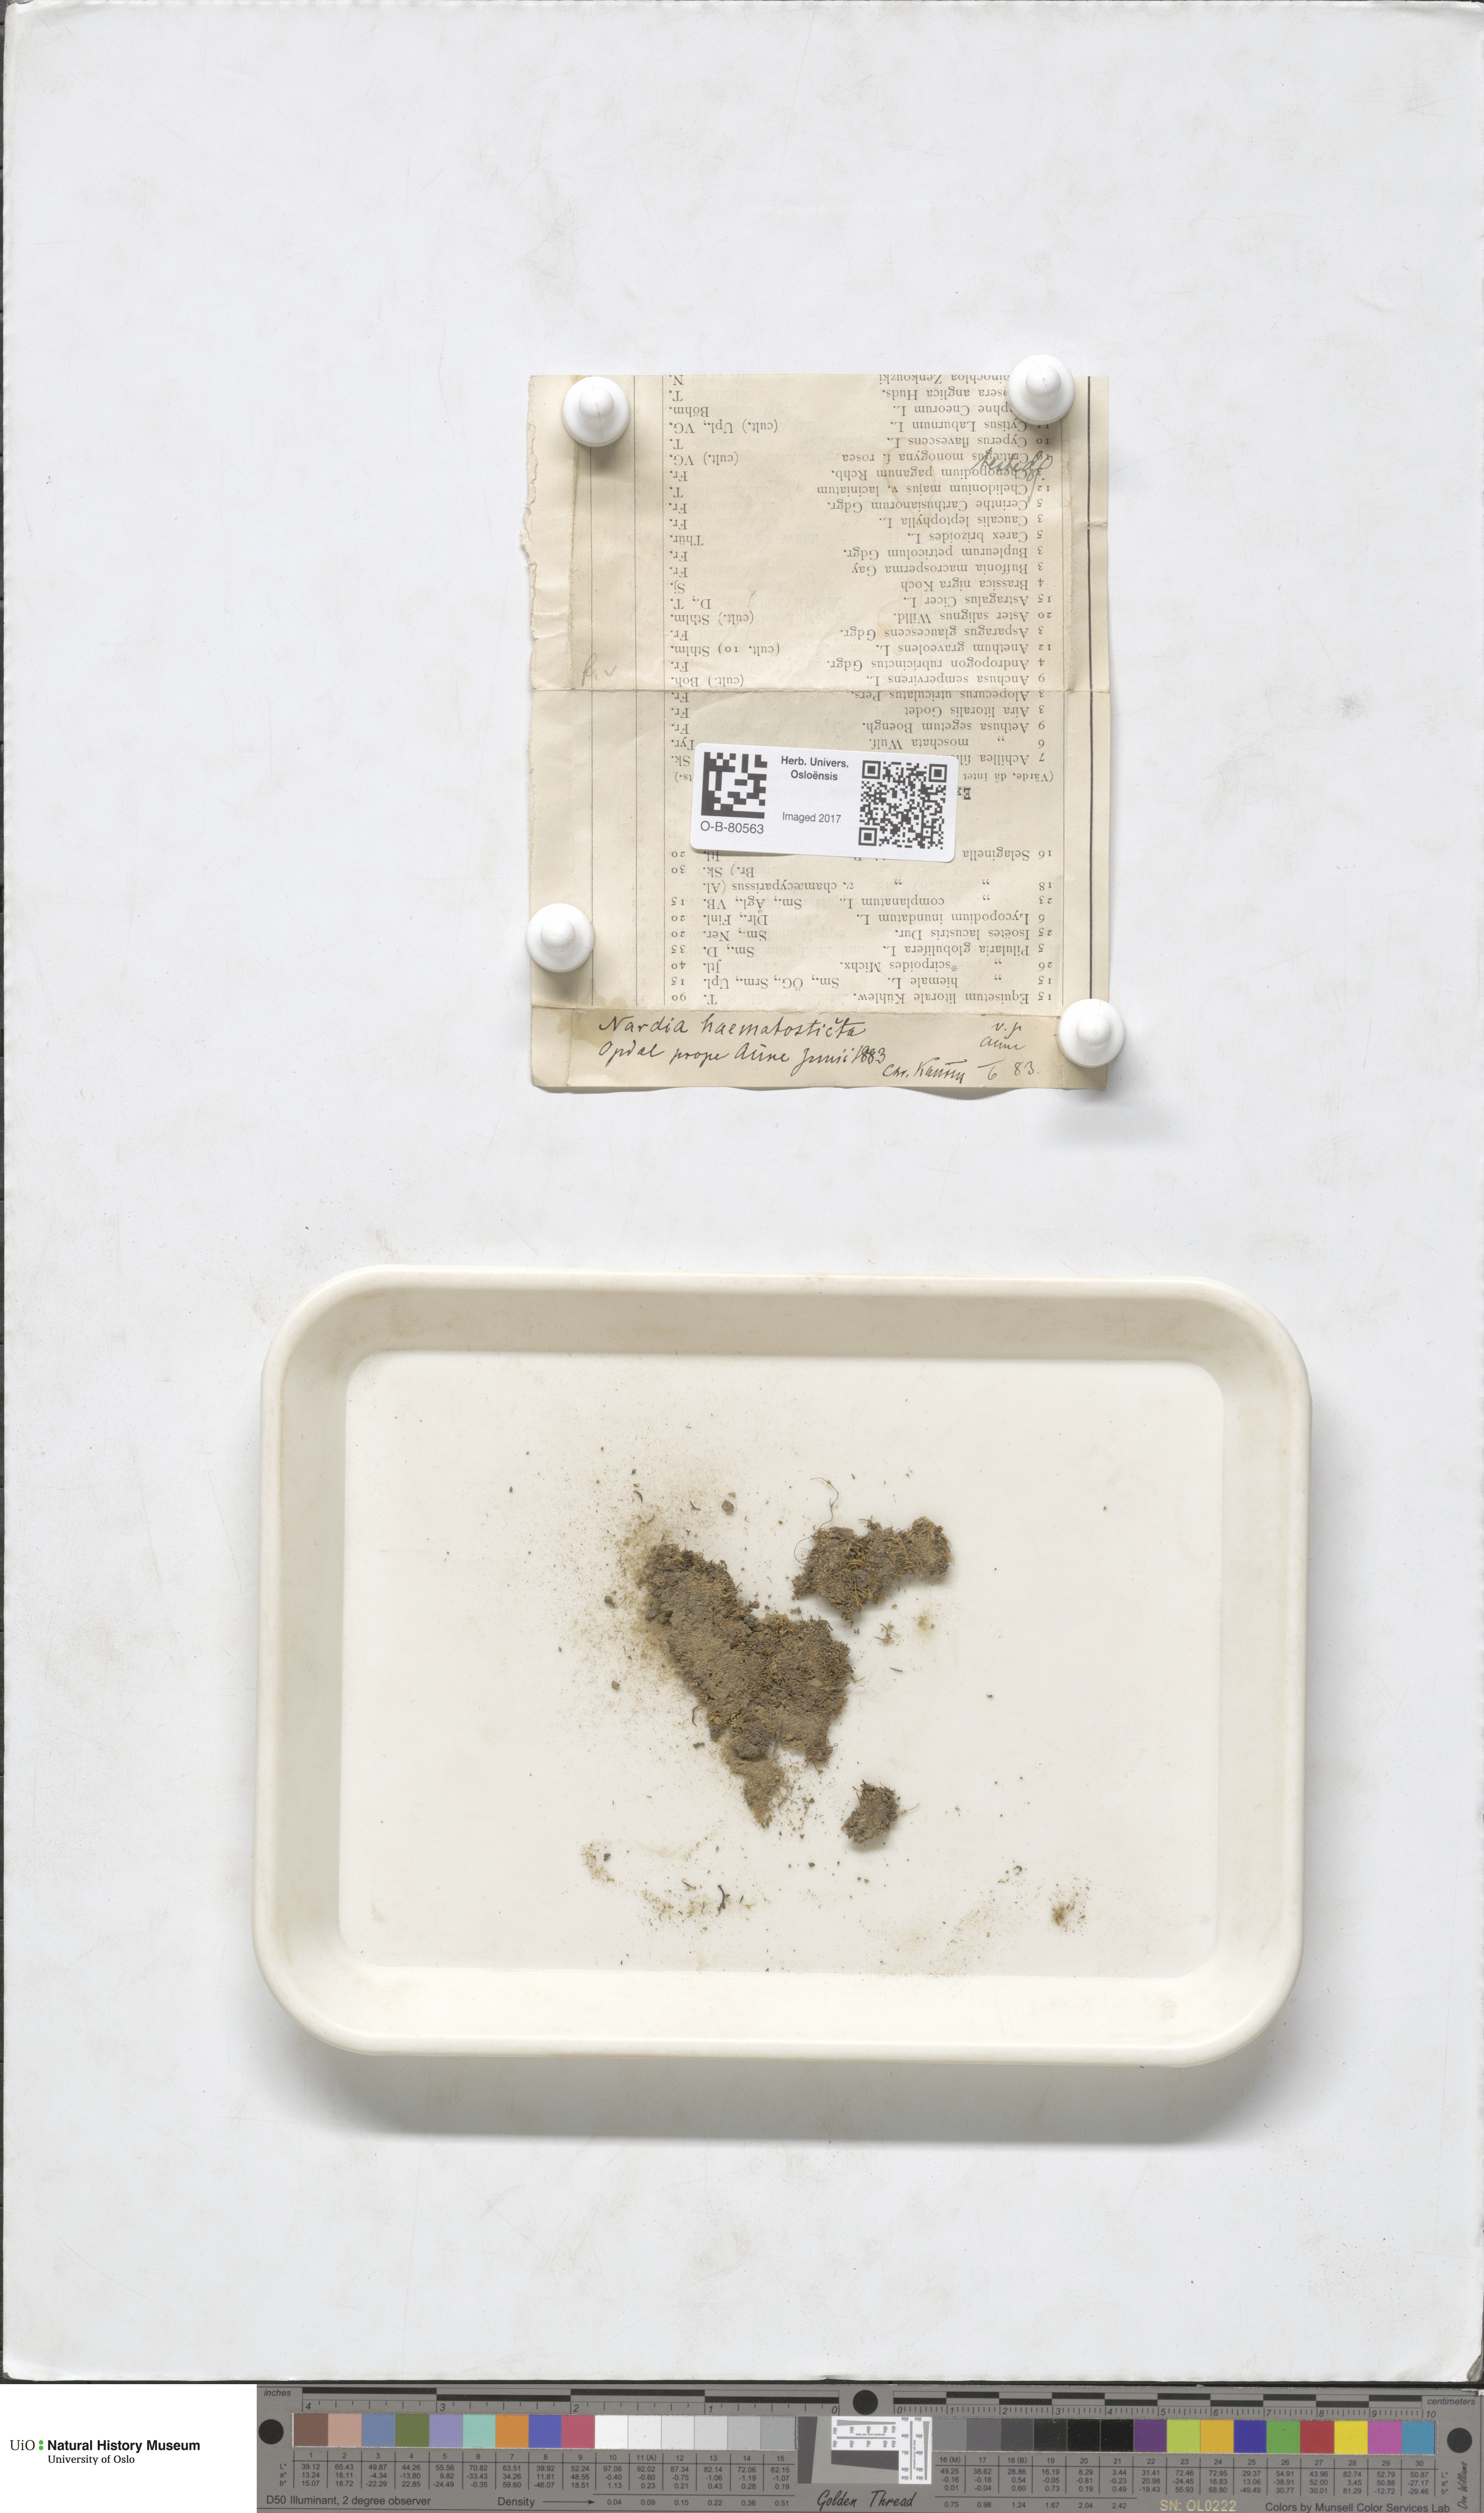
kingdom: Plantae
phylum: Marchantiophyta
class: Jungermanniopsida
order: Jungermanniales
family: Gymnomitriaceae
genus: Nardia
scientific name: Nardia geoscyphus
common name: Earth-cup flapwort
